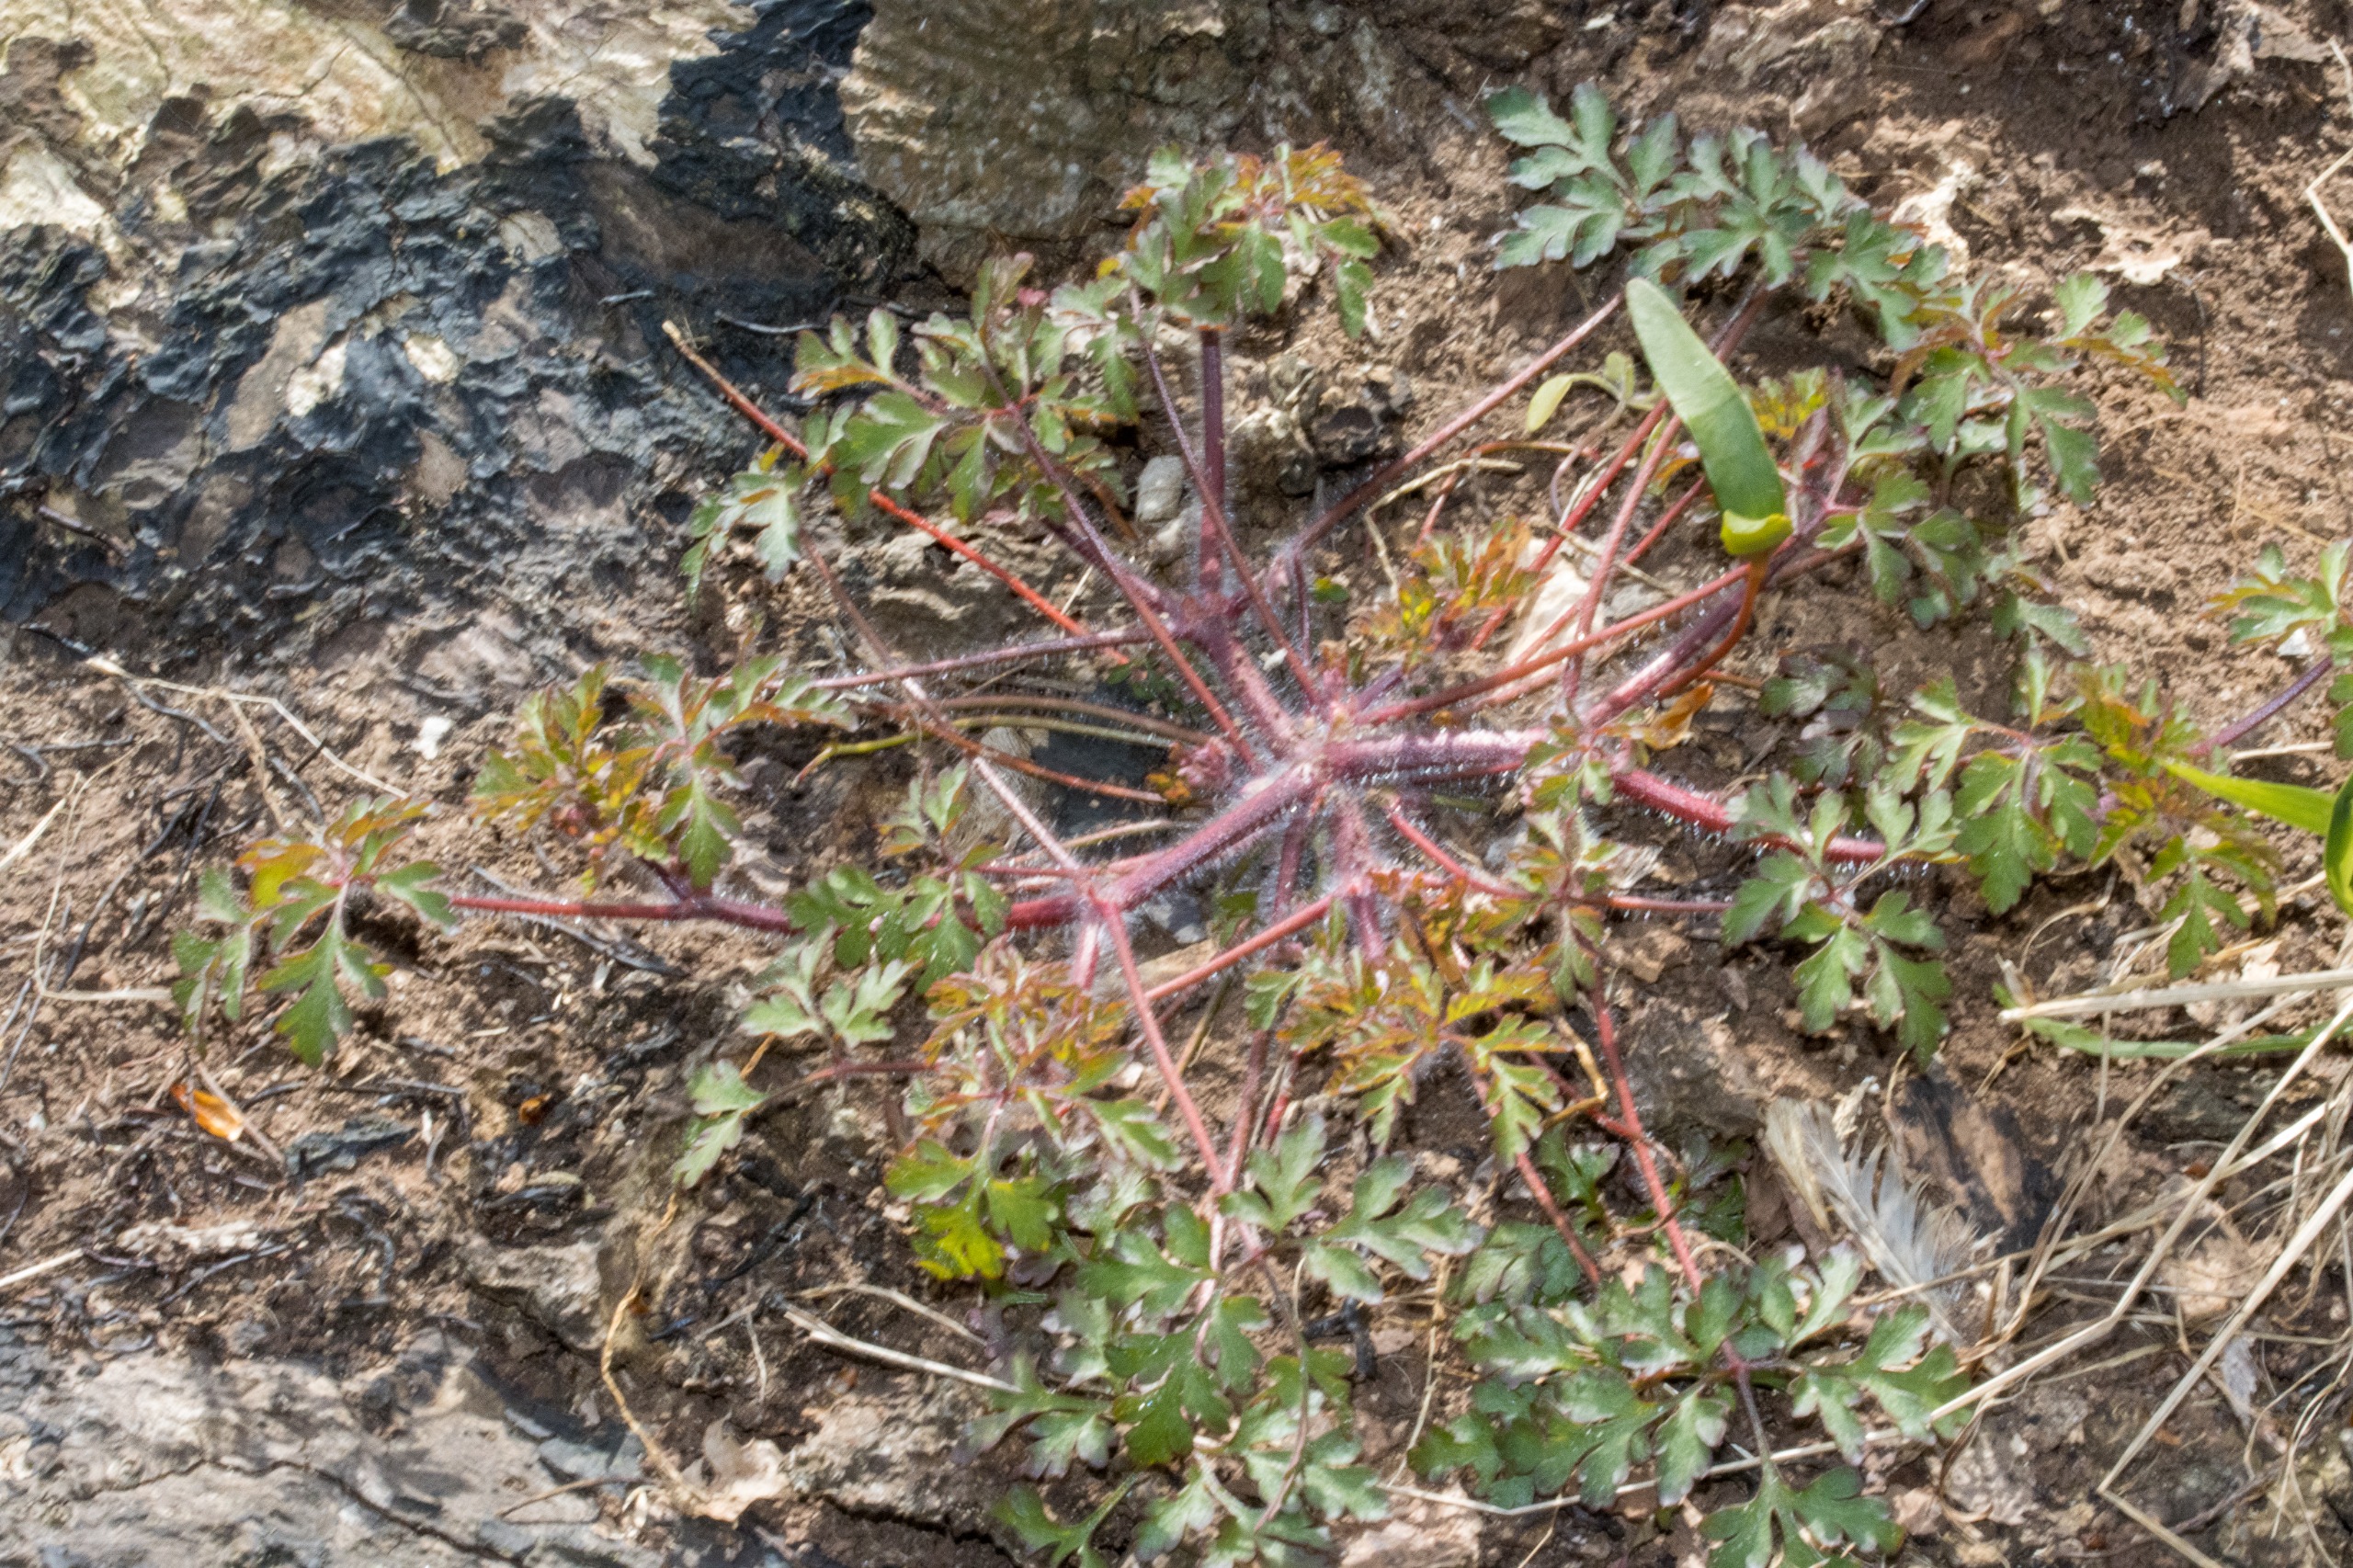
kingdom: Plantae
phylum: Tracheophyta
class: Magnoliopsida
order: Geraniales
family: Geraniaceae
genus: Geranium
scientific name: Geranium robertianum
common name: Stinkende storkenæb
